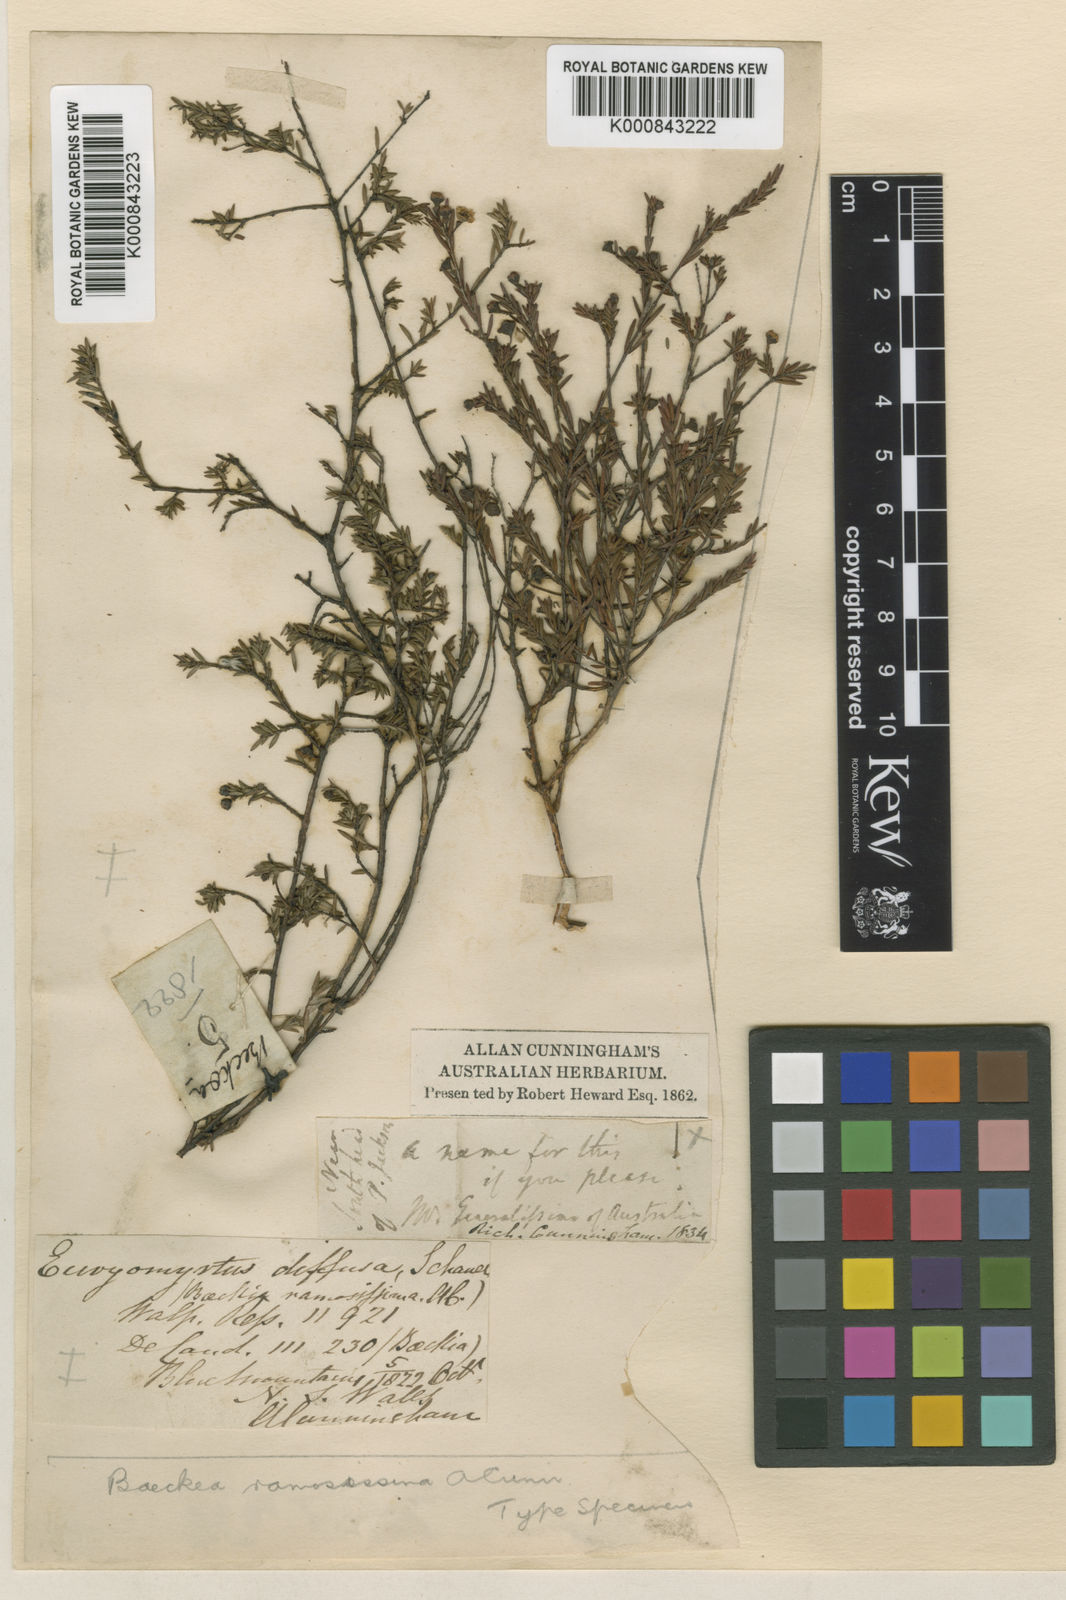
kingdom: Plantae
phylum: Tracheophyta
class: Magnoliopsida
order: Myrtales
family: Myrtaceae
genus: Euryomyrtus
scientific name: Euryomyrtus ramosissima
